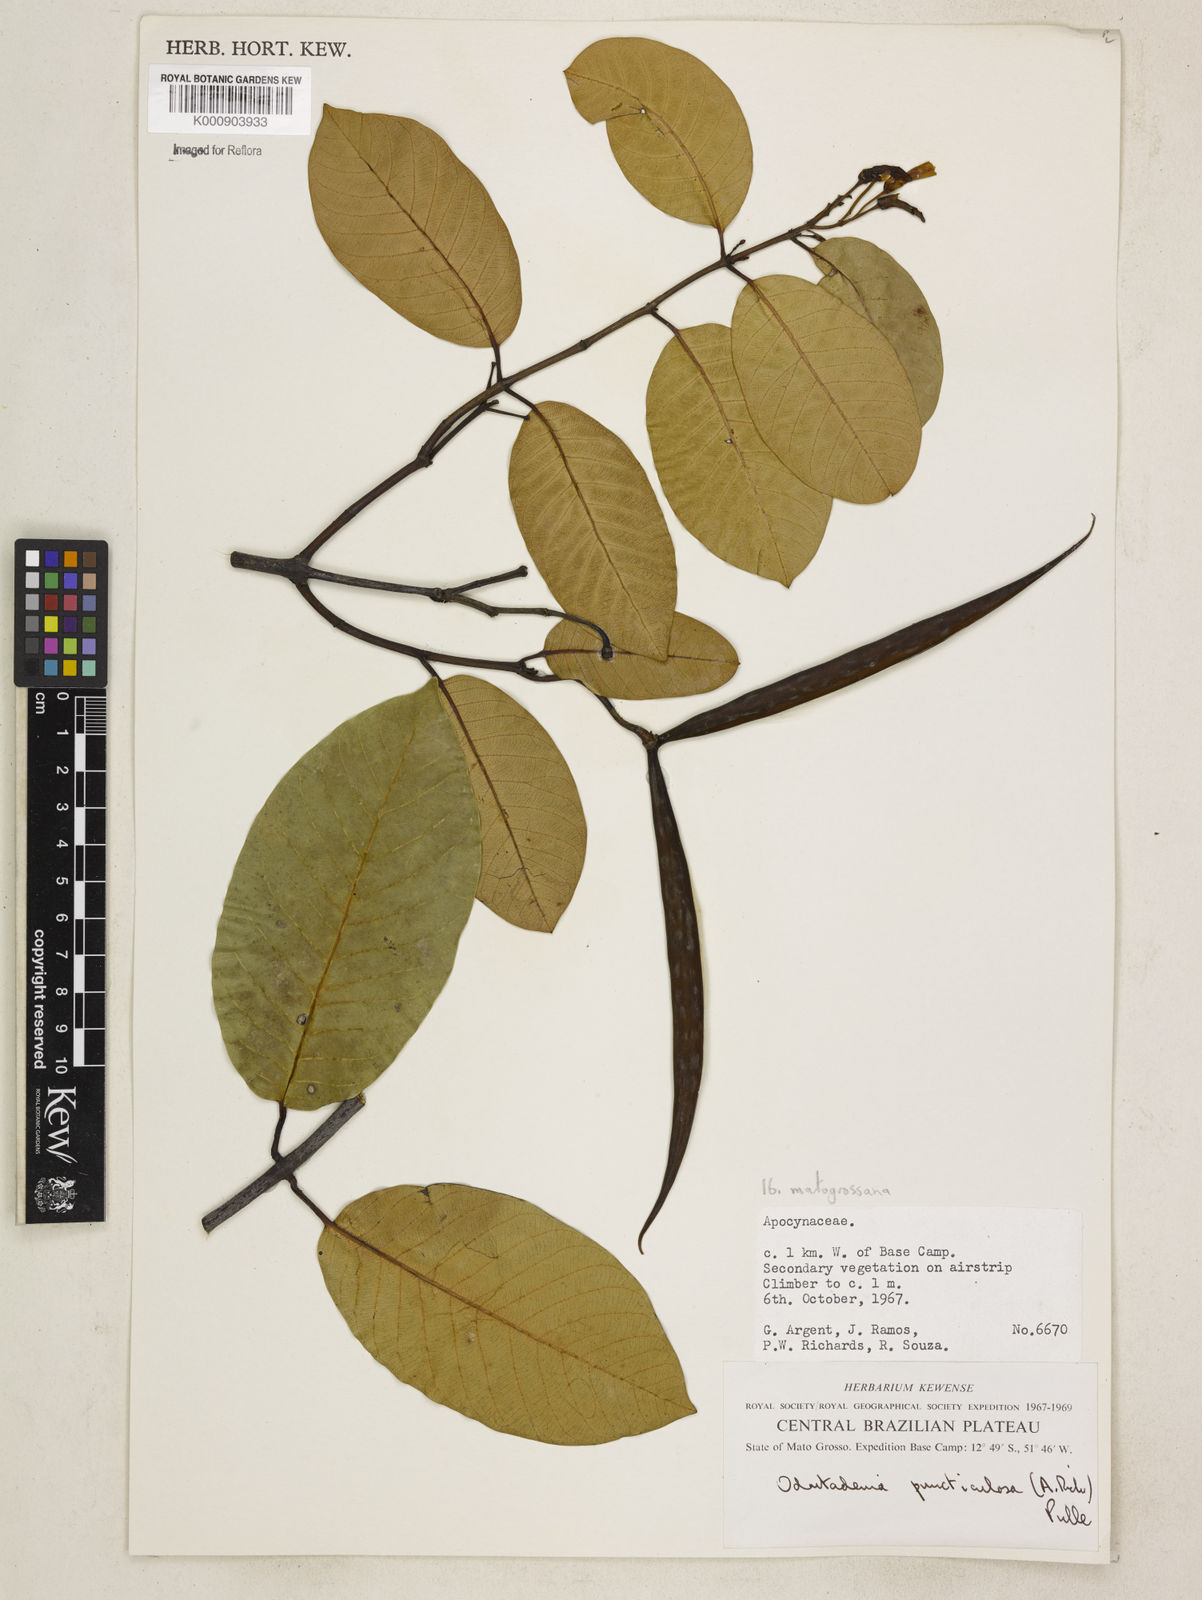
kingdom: Plantae
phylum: Tracheophyta
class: Magnoliopsida
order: Gentianales
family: Apocynaceae
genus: Odontadenia
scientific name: Odontadenia matogrossana
